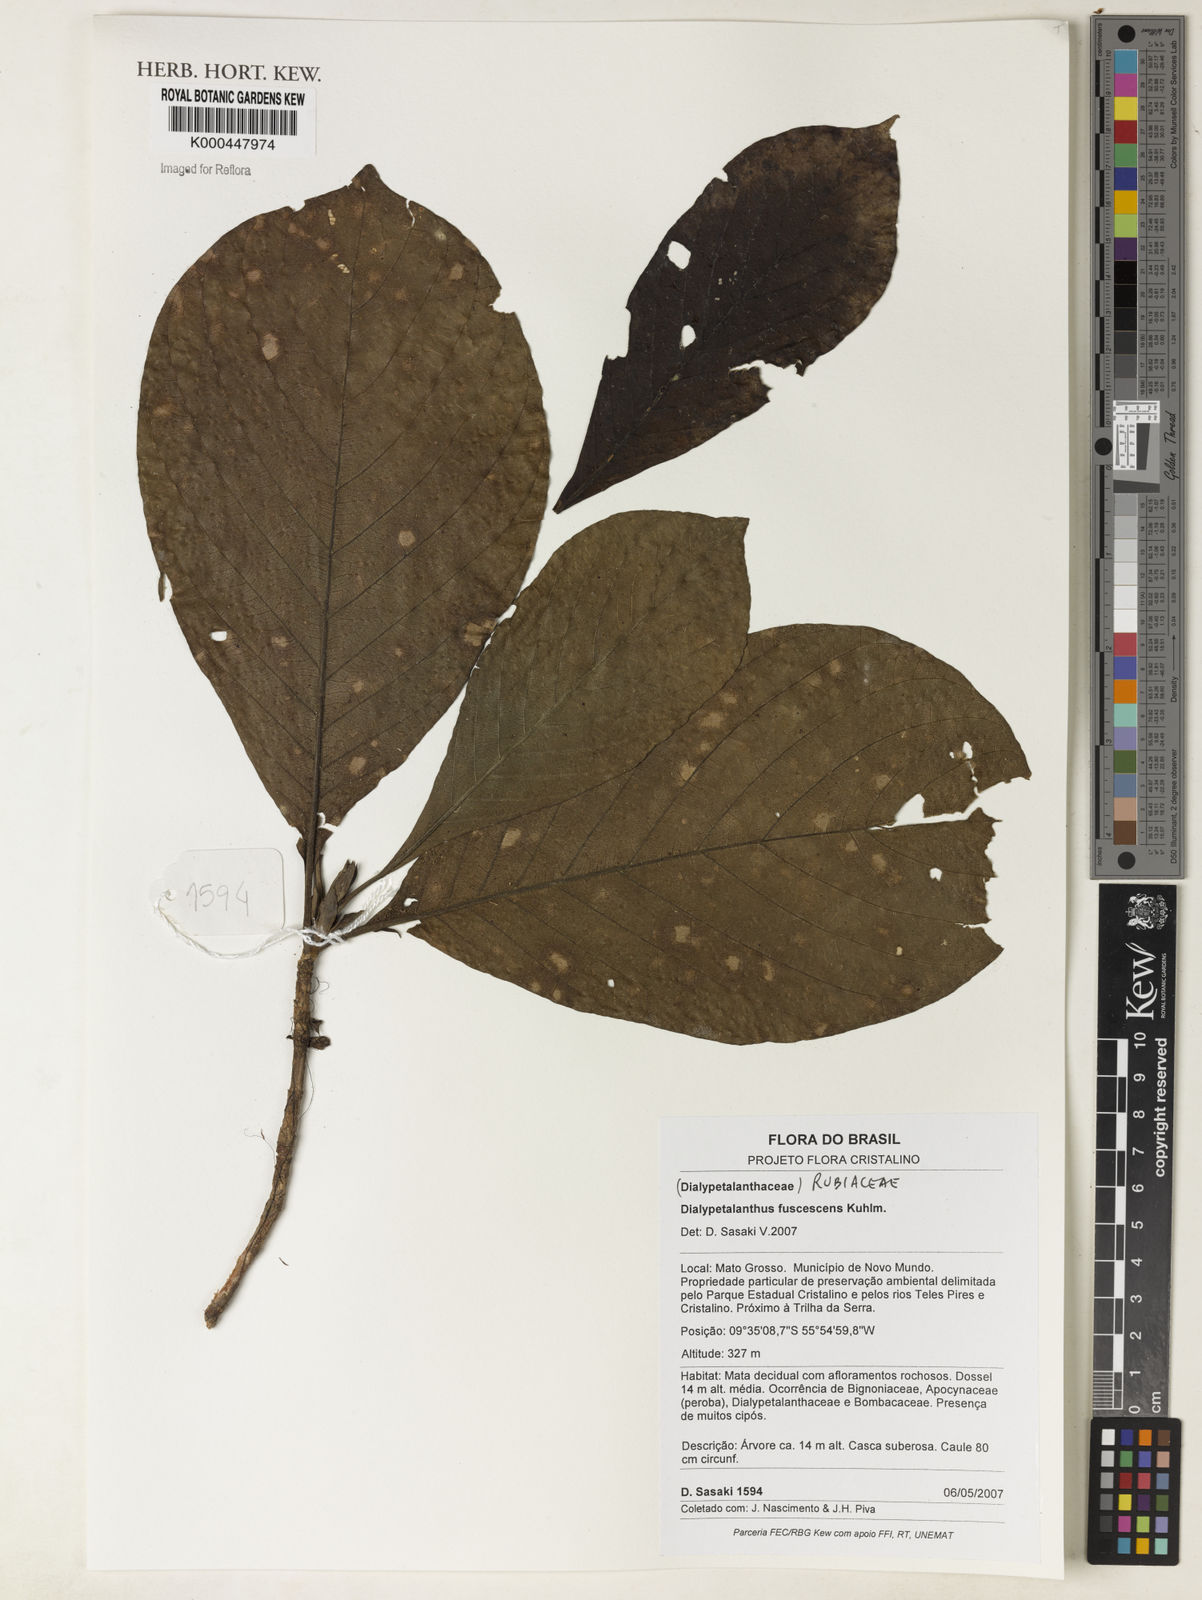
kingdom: Plantae
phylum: Tracheophyta
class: Magnoliopsida
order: Gentianales
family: Rubiaceae
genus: Dialypetalanthus
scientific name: Dialypetalanthus fuscescens
